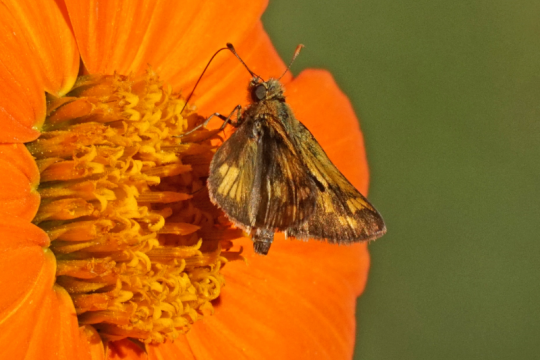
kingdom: Animalia
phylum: Arthropoda
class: Insecta
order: Lepidoptera
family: Hesperiidae
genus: Polites
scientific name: Polites coras
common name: Peck's Skipper
